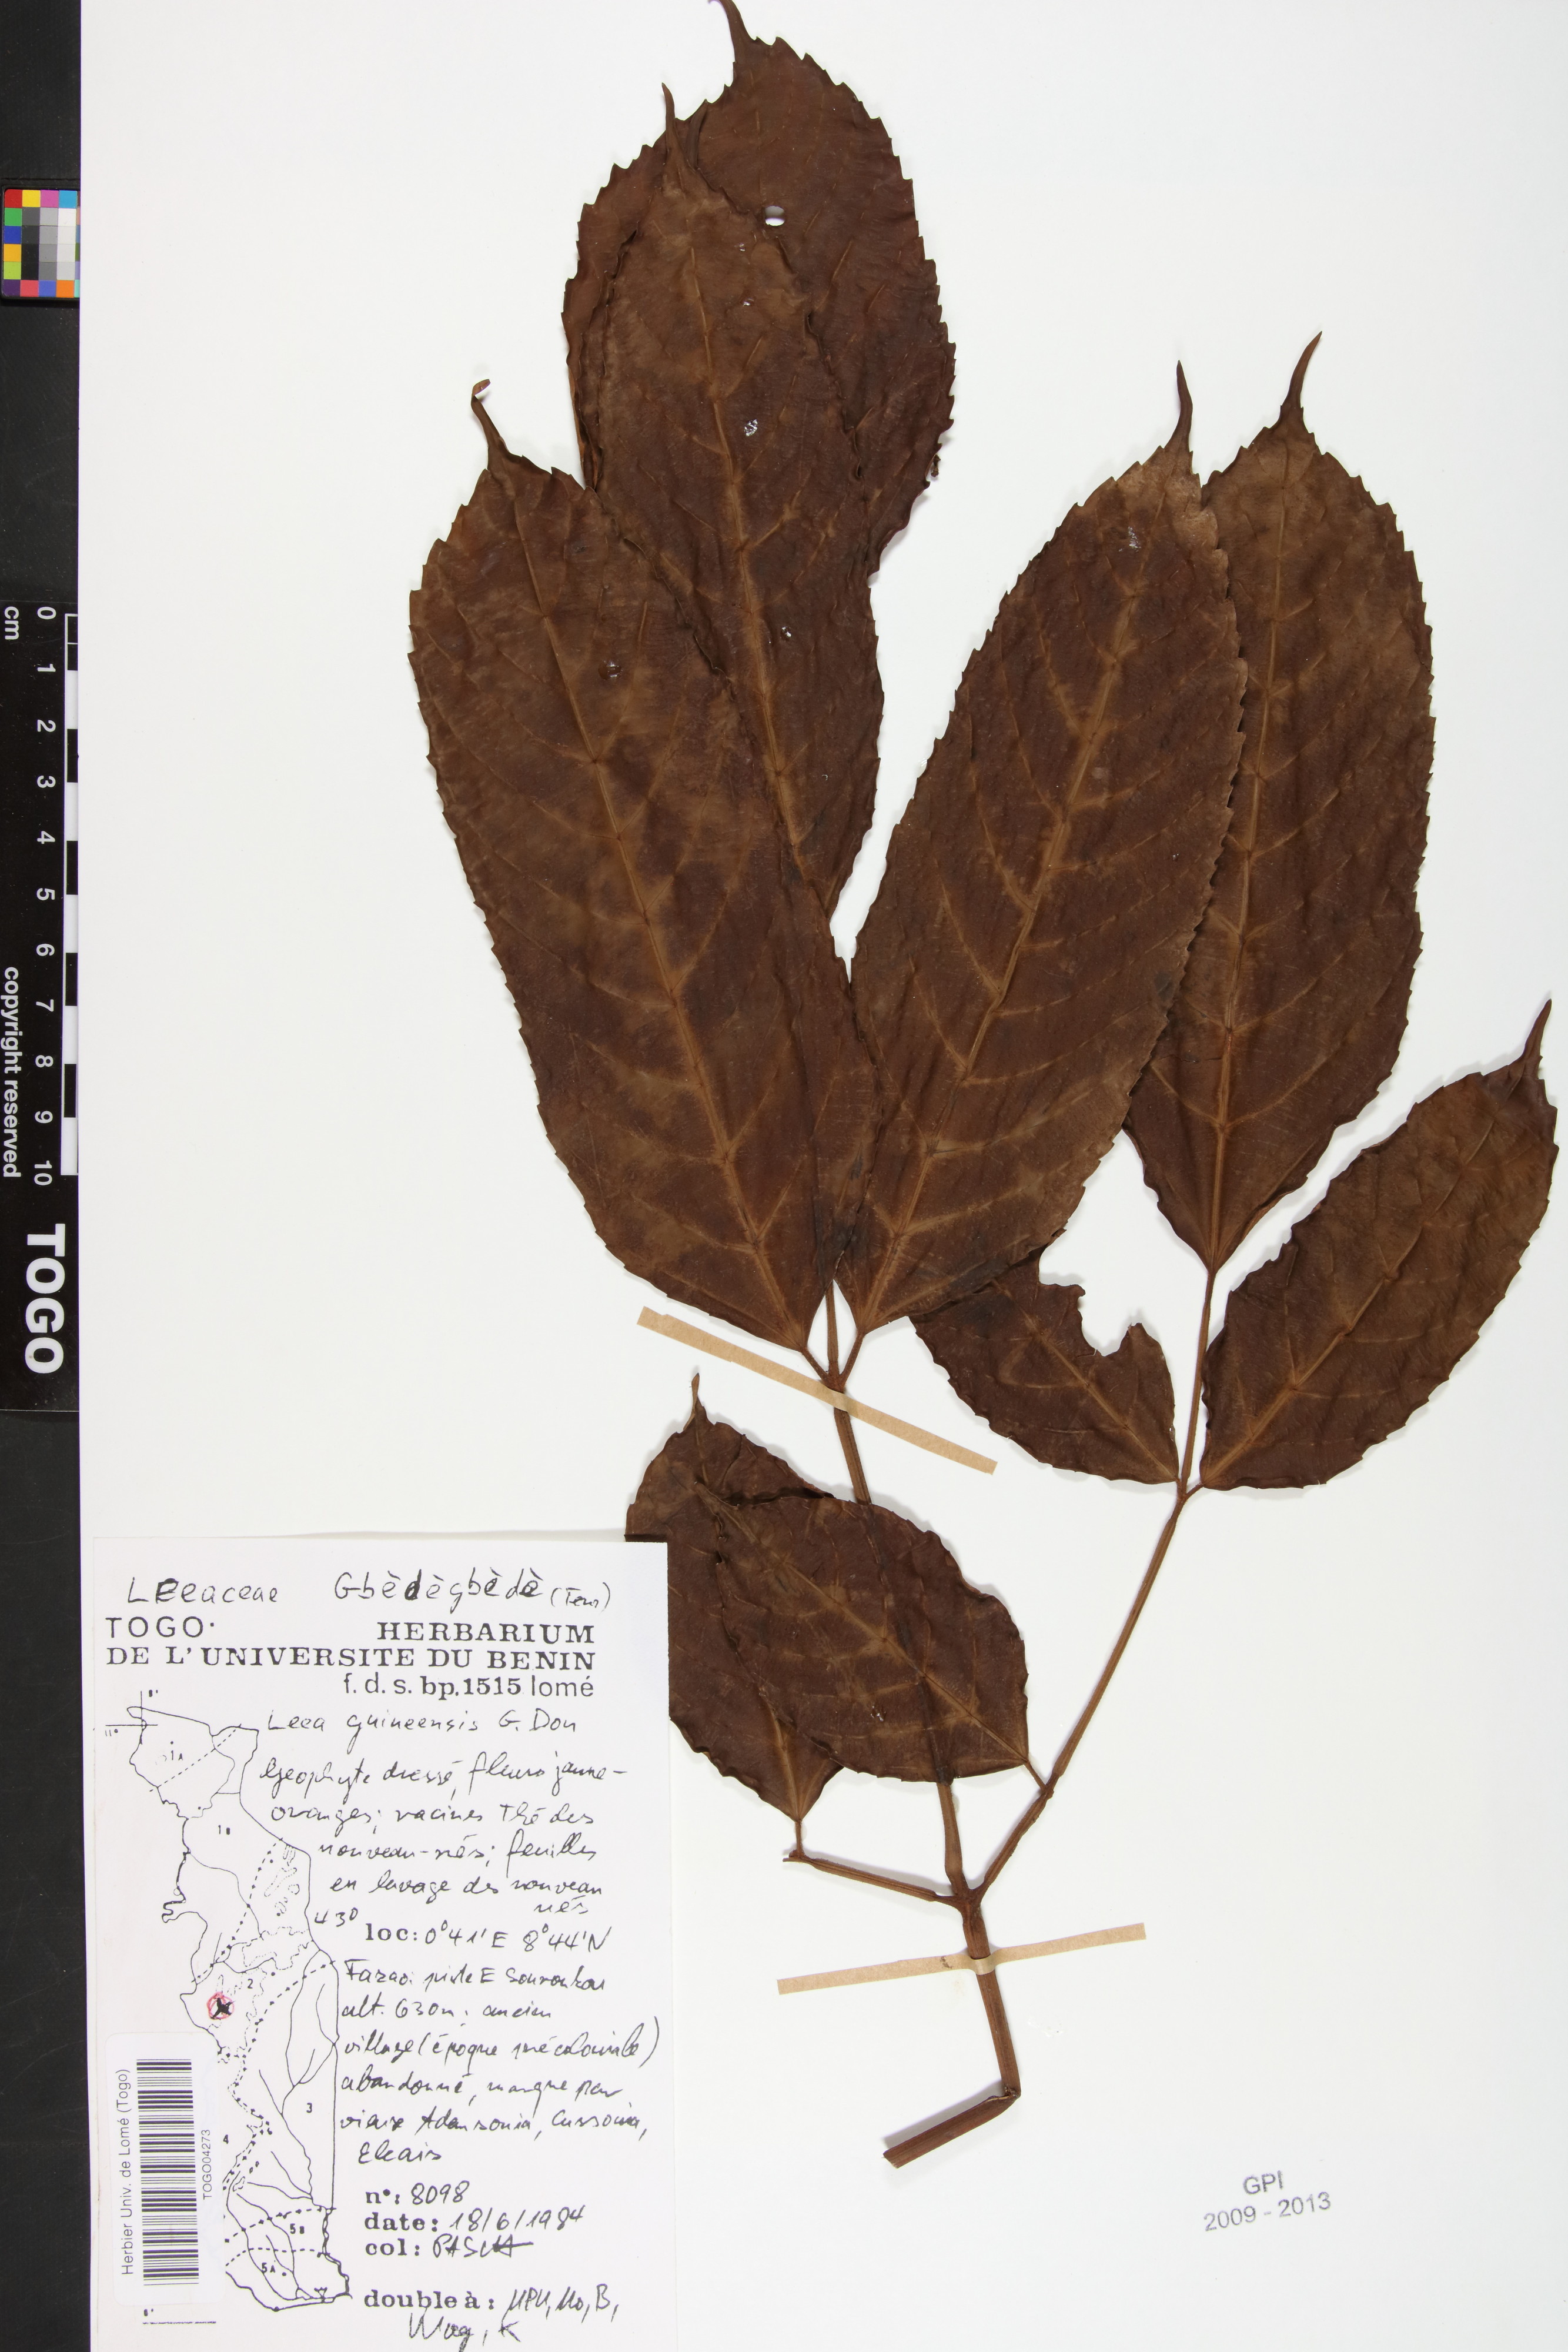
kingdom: Plantae
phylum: Tracheophyta
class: Magnoliopsida
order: Vitales
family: Vitaceae
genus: Leea
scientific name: Leea guineensis
